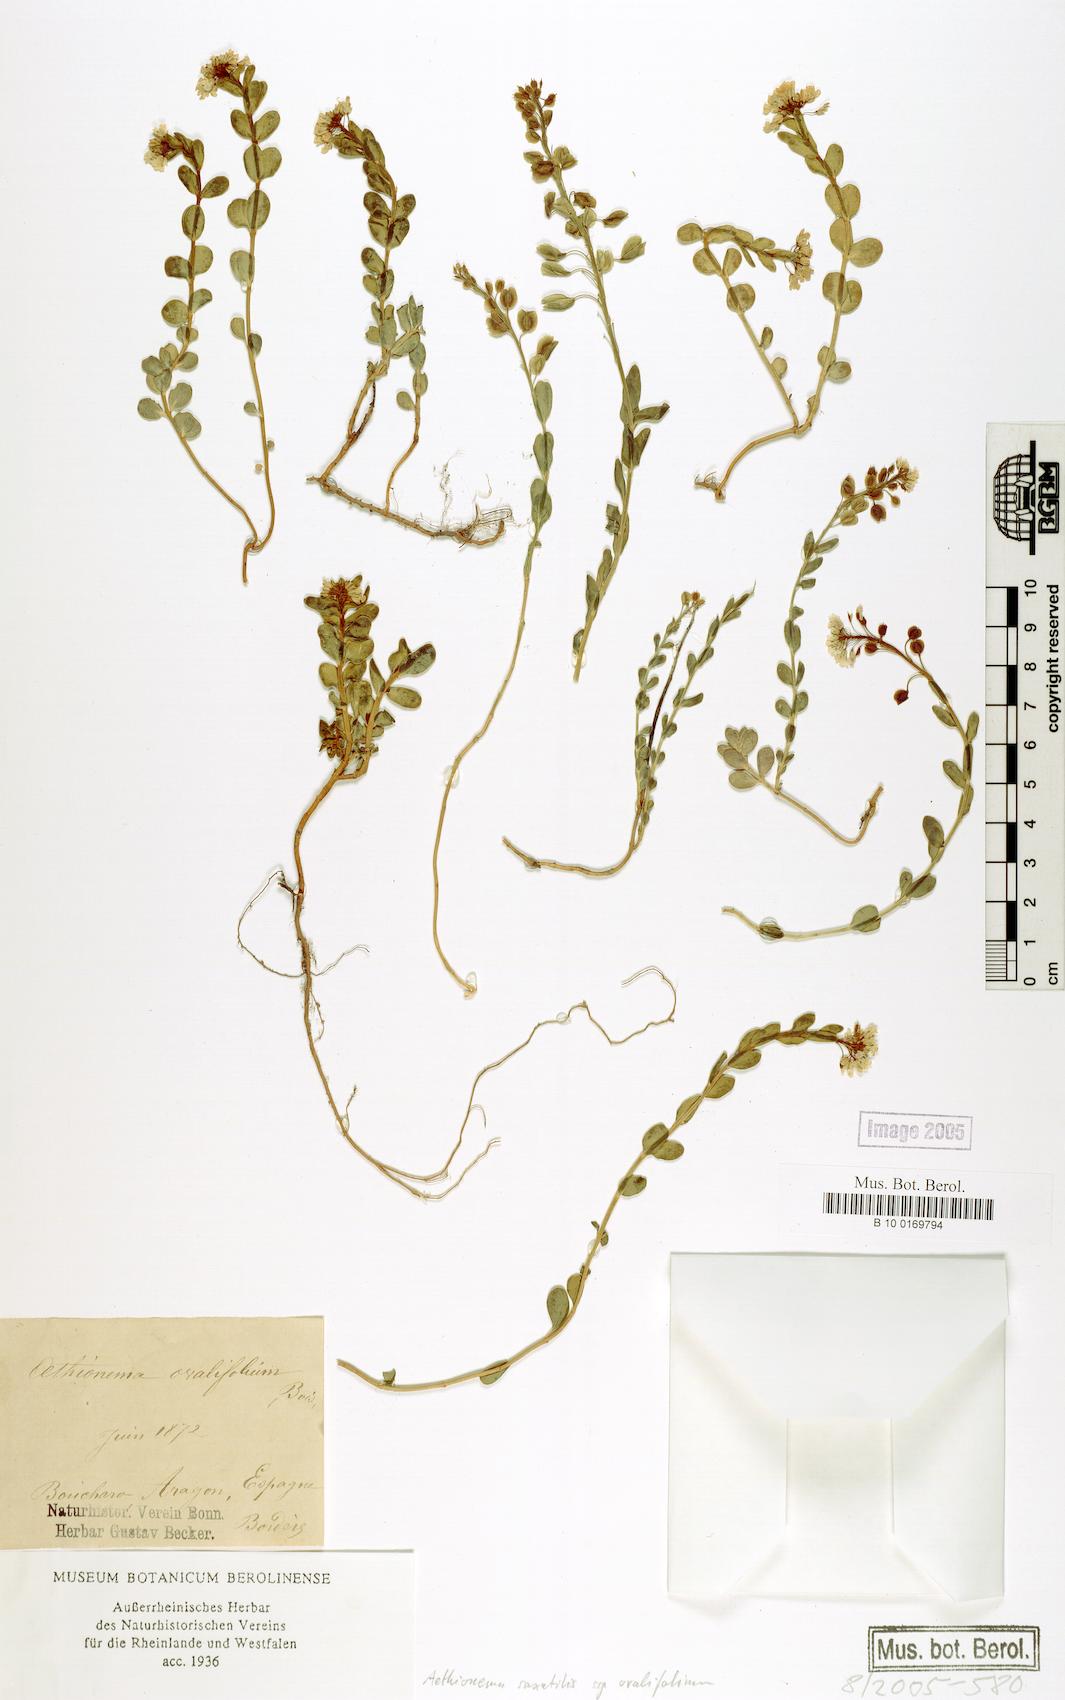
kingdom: Plantae
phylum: Tracheophyta
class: Magnoliopsida
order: Brassicales
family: Brassicaceae
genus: Aethionema
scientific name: Aethionema saxatile
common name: Burnt candytuft
